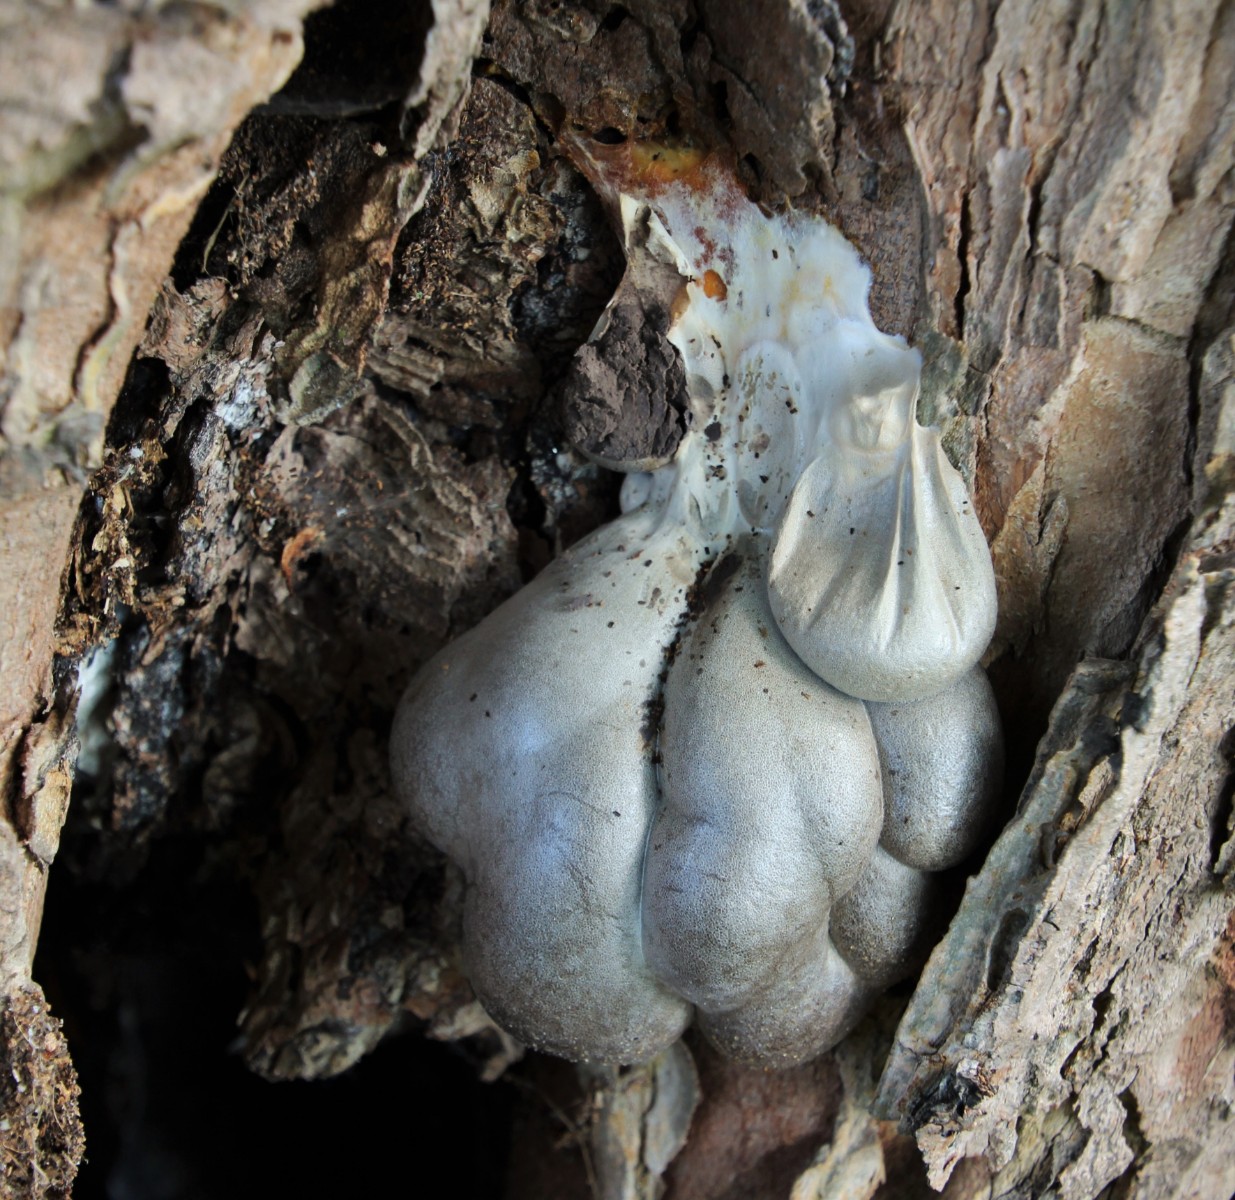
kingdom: Protozoa
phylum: Mycetozoa
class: Myxomycetes
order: Cribrariales
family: Tubiferaceae
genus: Lycogala
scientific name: Lycogala flavofuscum
